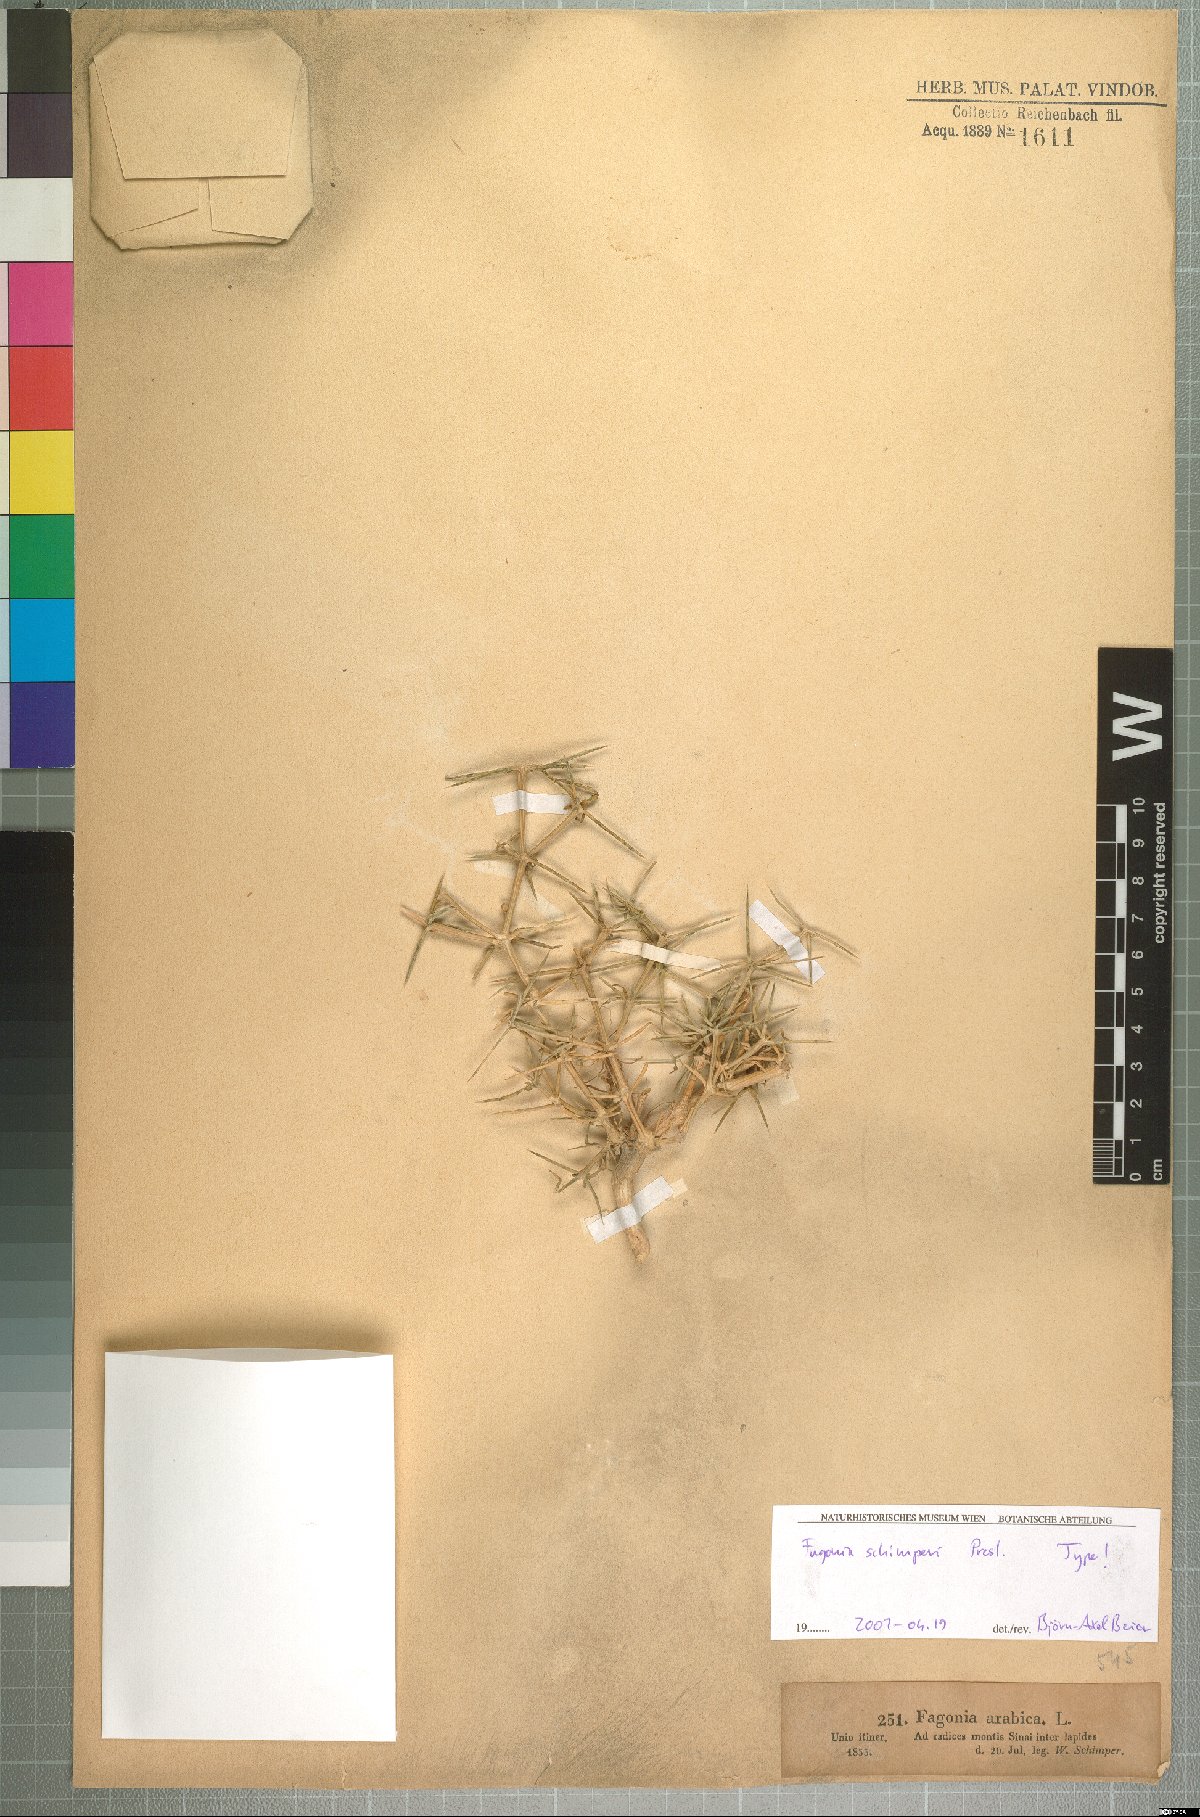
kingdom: Plantae
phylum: Tracheophyta
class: Magnoliopsida
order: Zygophyllales
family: Zygophyllaceae
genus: Fagonia
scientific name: Fagonia bruguieri
